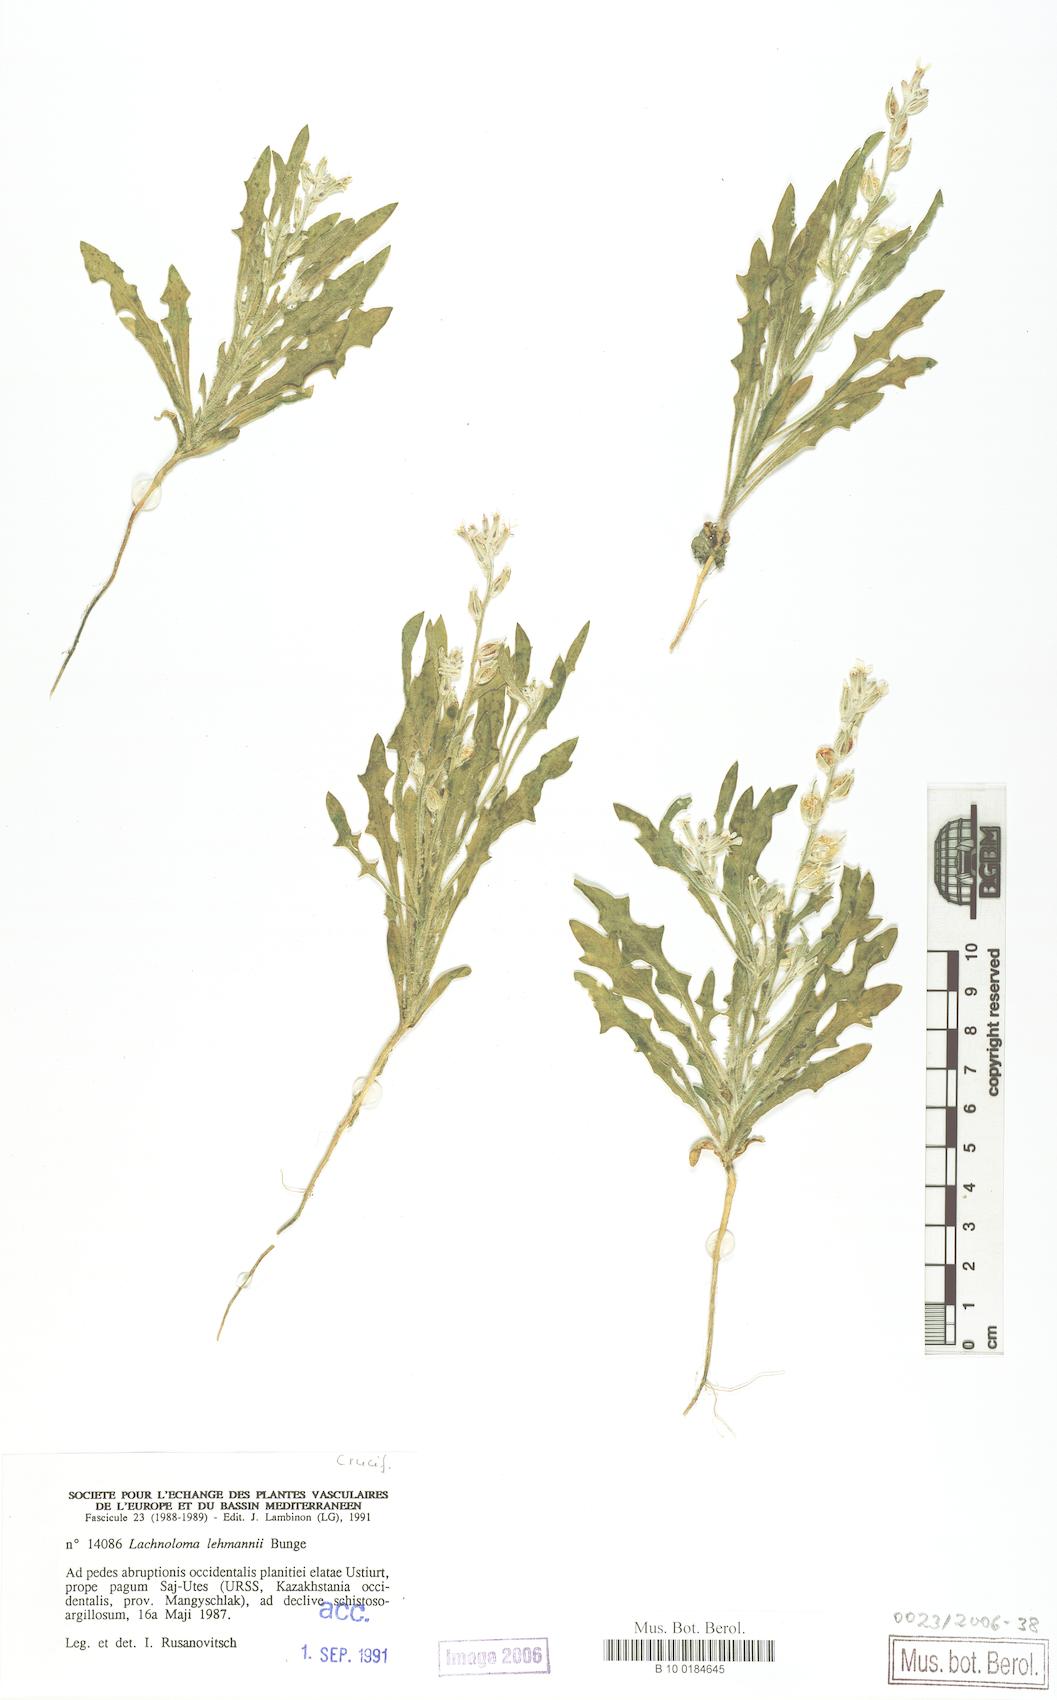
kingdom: Plantae
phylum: Tracheophyta
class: Magnoliopsida
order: Brassicales
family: Brassicaceae
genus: Lachnoloma
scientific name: Lachnoloma lehmannii
